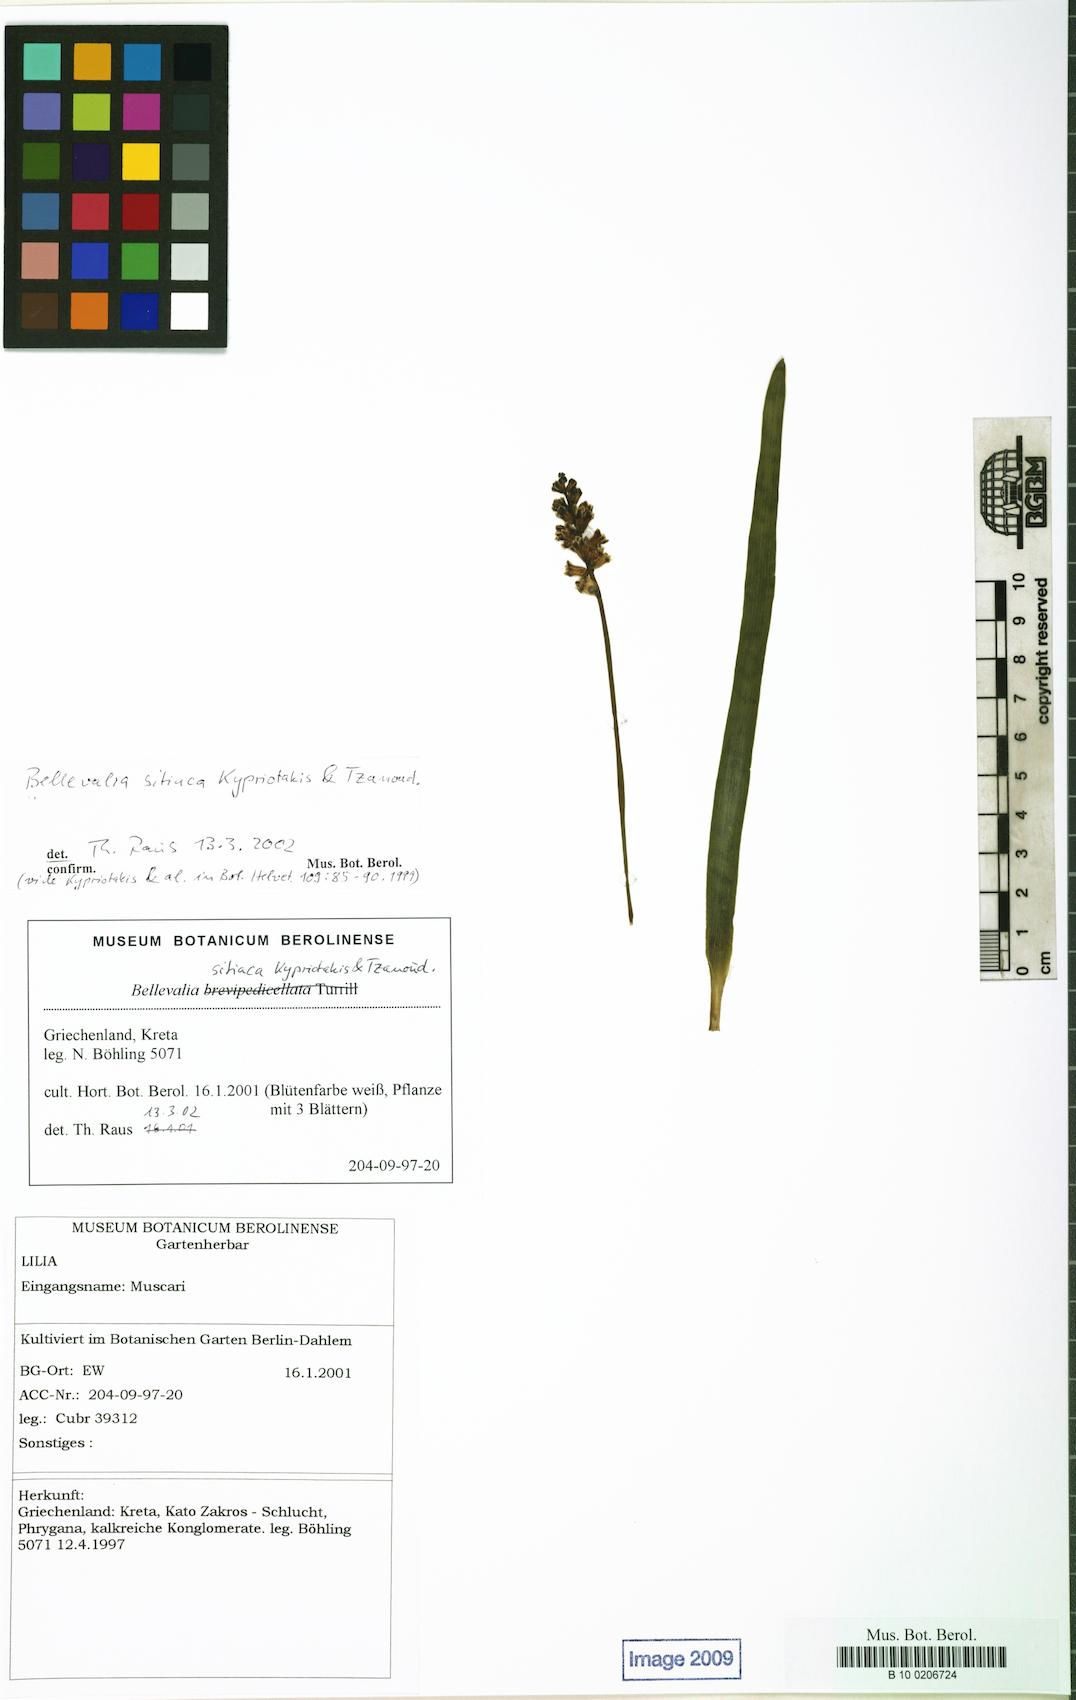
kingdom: Plantae
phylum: Tracheophyta
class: Liliopsida
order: Asparagales
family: Asparagaceae
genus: Bellevalia
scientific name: Bellevalia sitiaca
